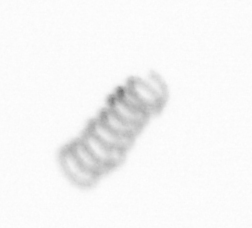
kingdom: Chromista
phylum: Ochrophyta
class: Bacillariophyceae
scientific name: Bacillariophyceae
